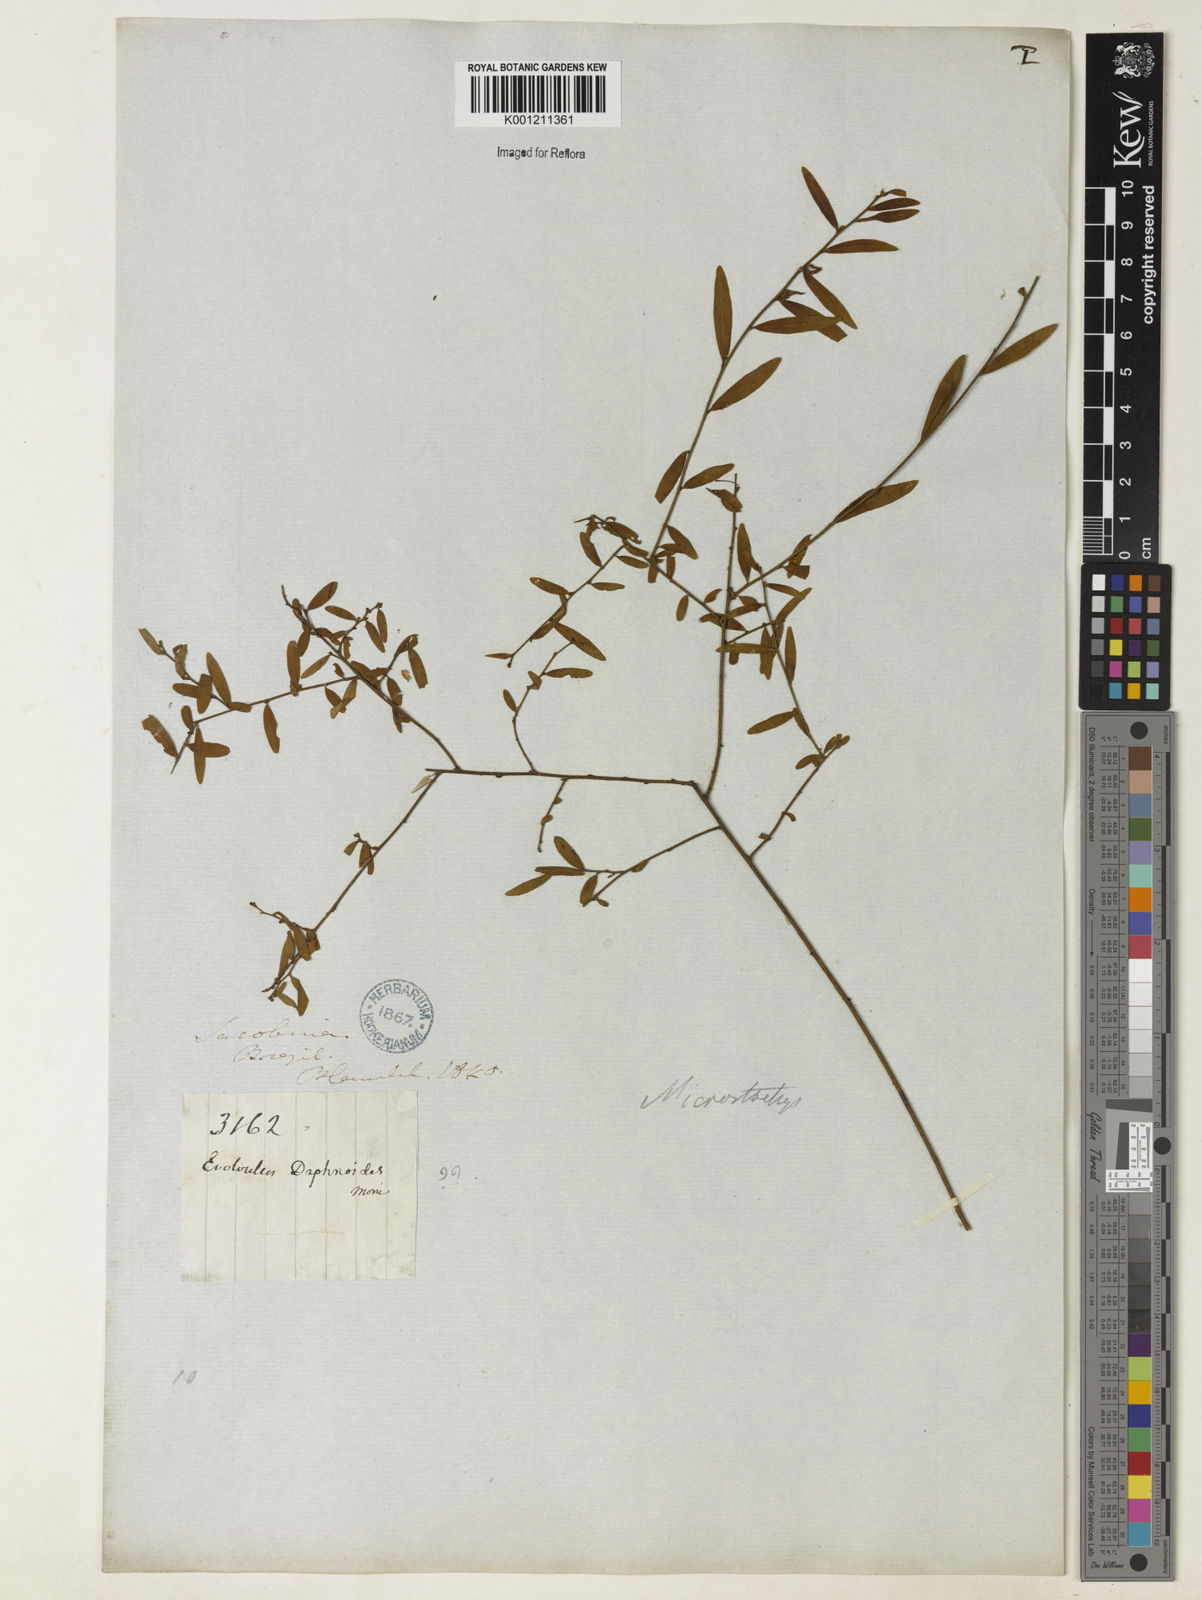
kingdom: Plantae
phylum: Tracheophyta
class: Magnoliopsida
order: Malpighiales
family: Euphorbiaceae
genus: Microstachys
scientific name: Microstachys corniculata
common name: Hato tejas
